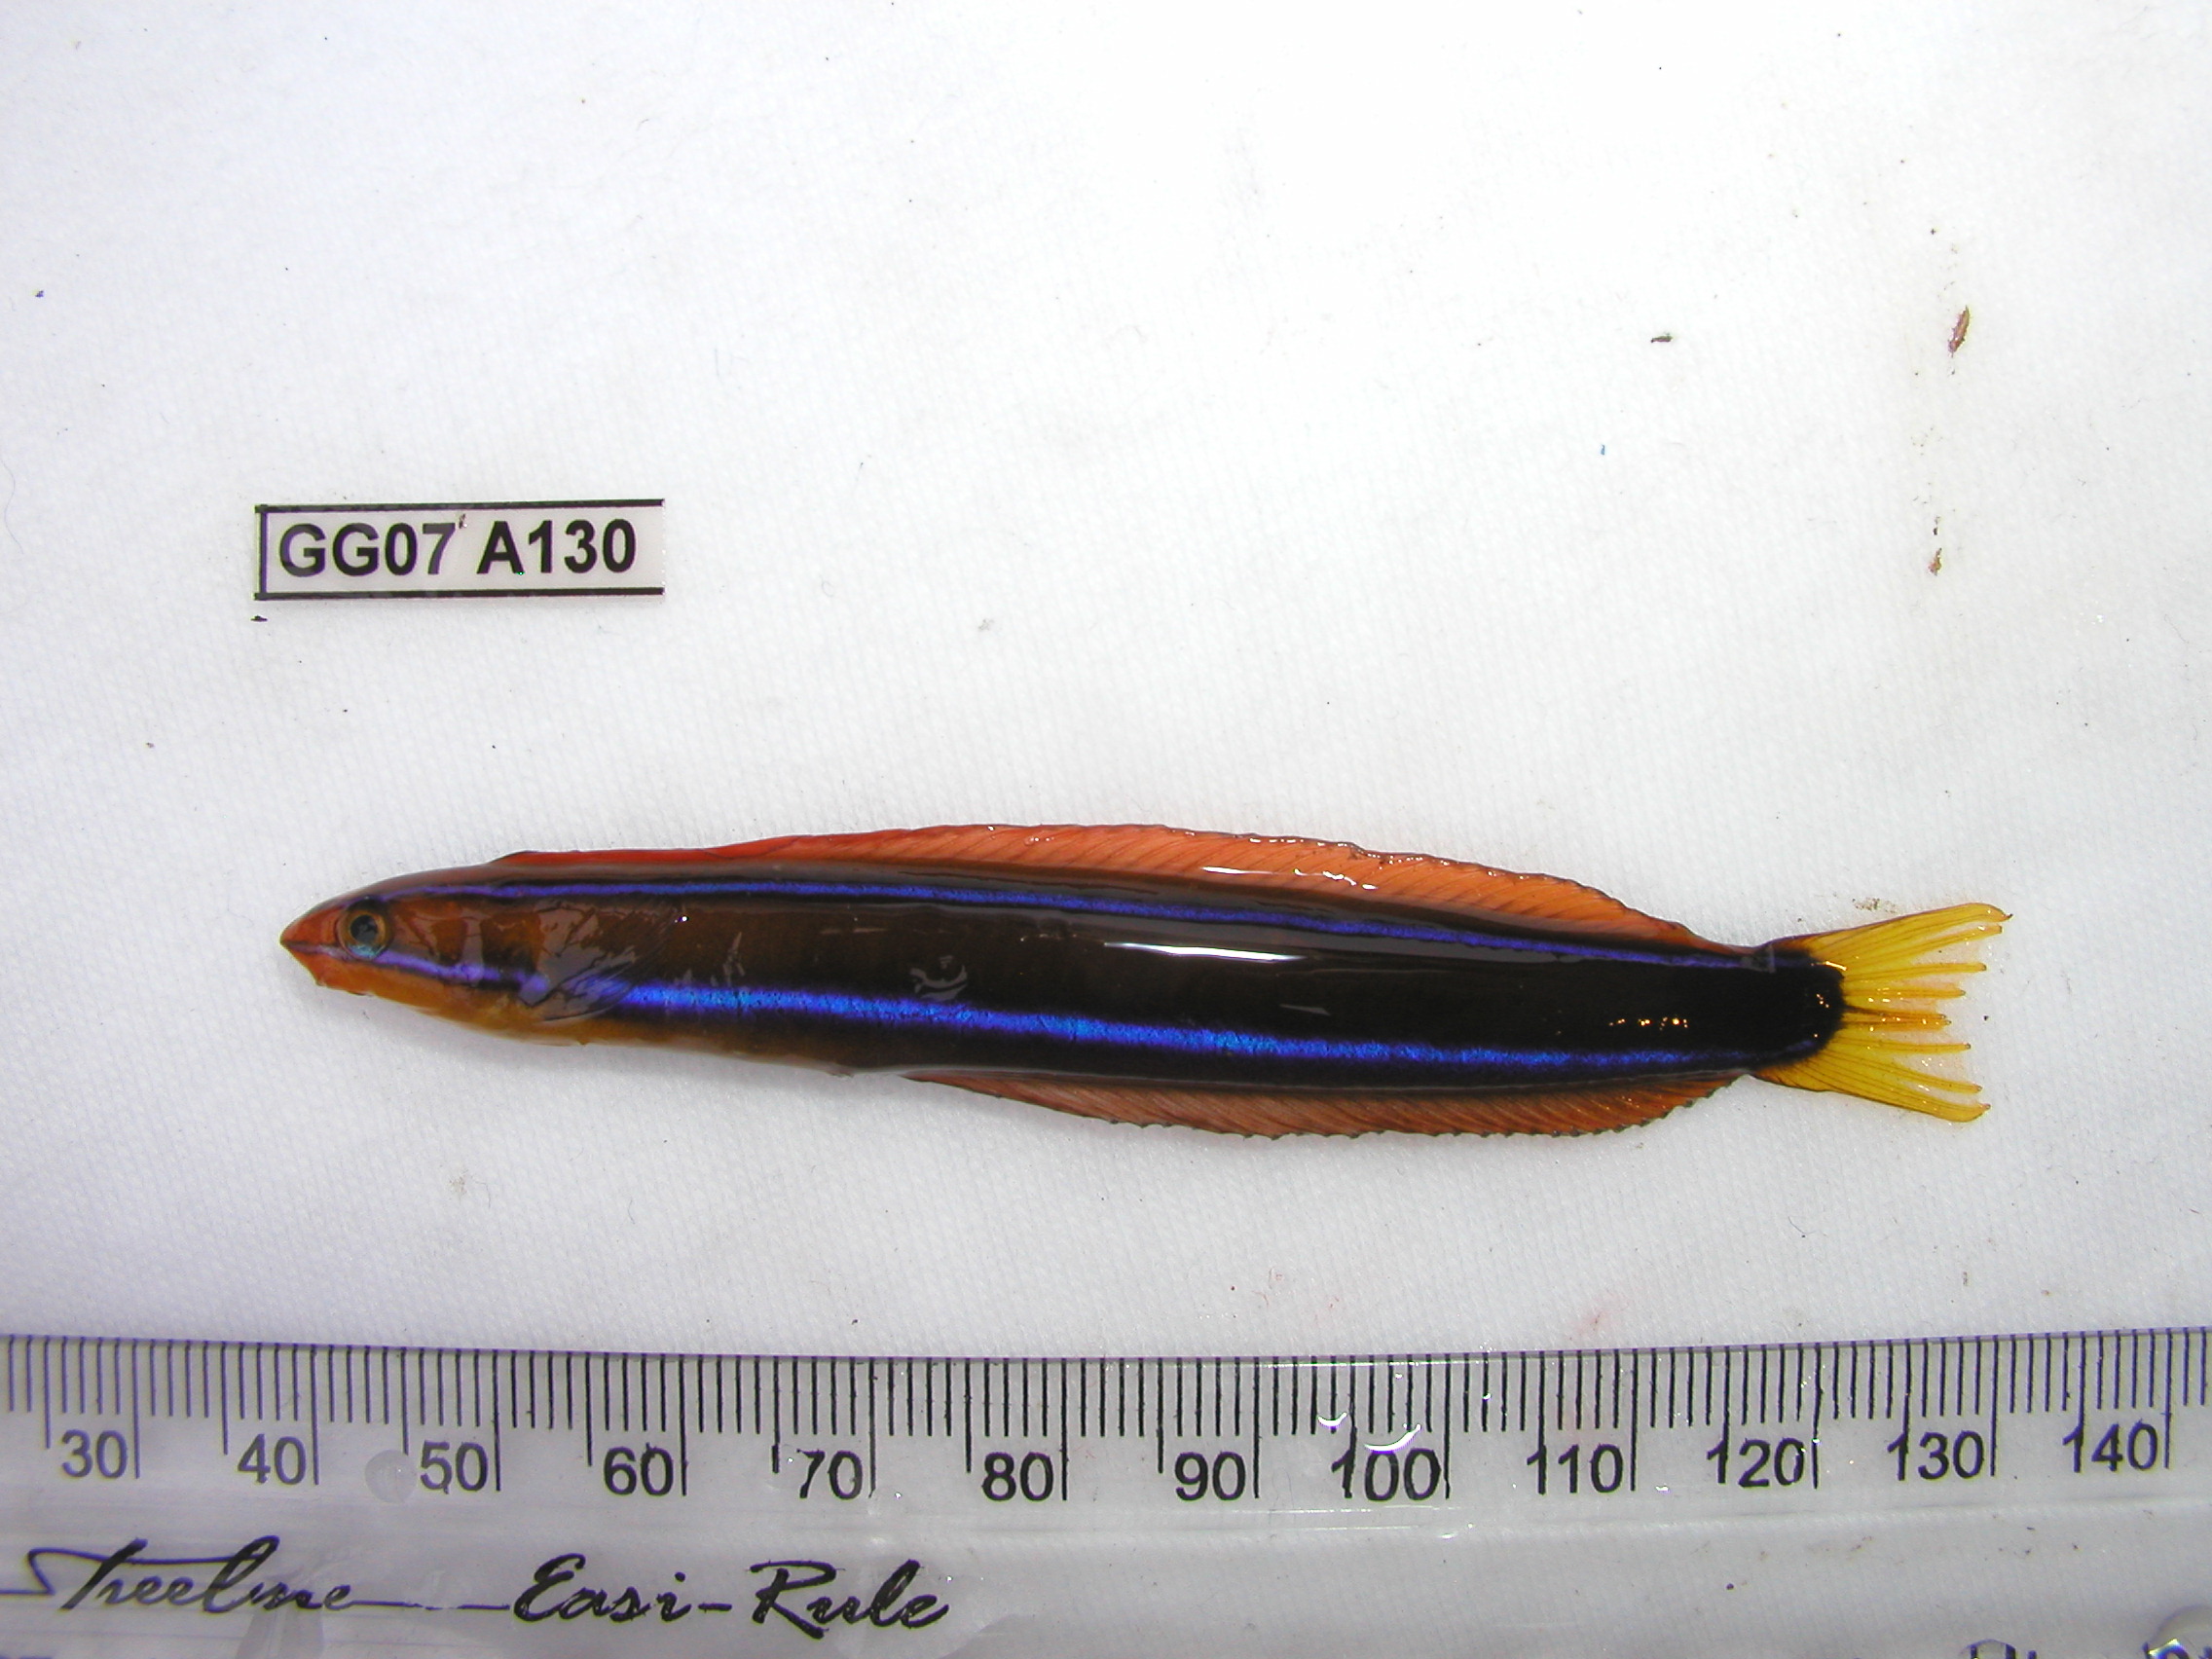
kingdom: Animalia
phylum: Chordata
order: Perciformes
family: Blenniidae
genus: Plagiotremus
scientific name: Plagiotremus rhinorhynchos
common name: Bluestriped fangblenny
